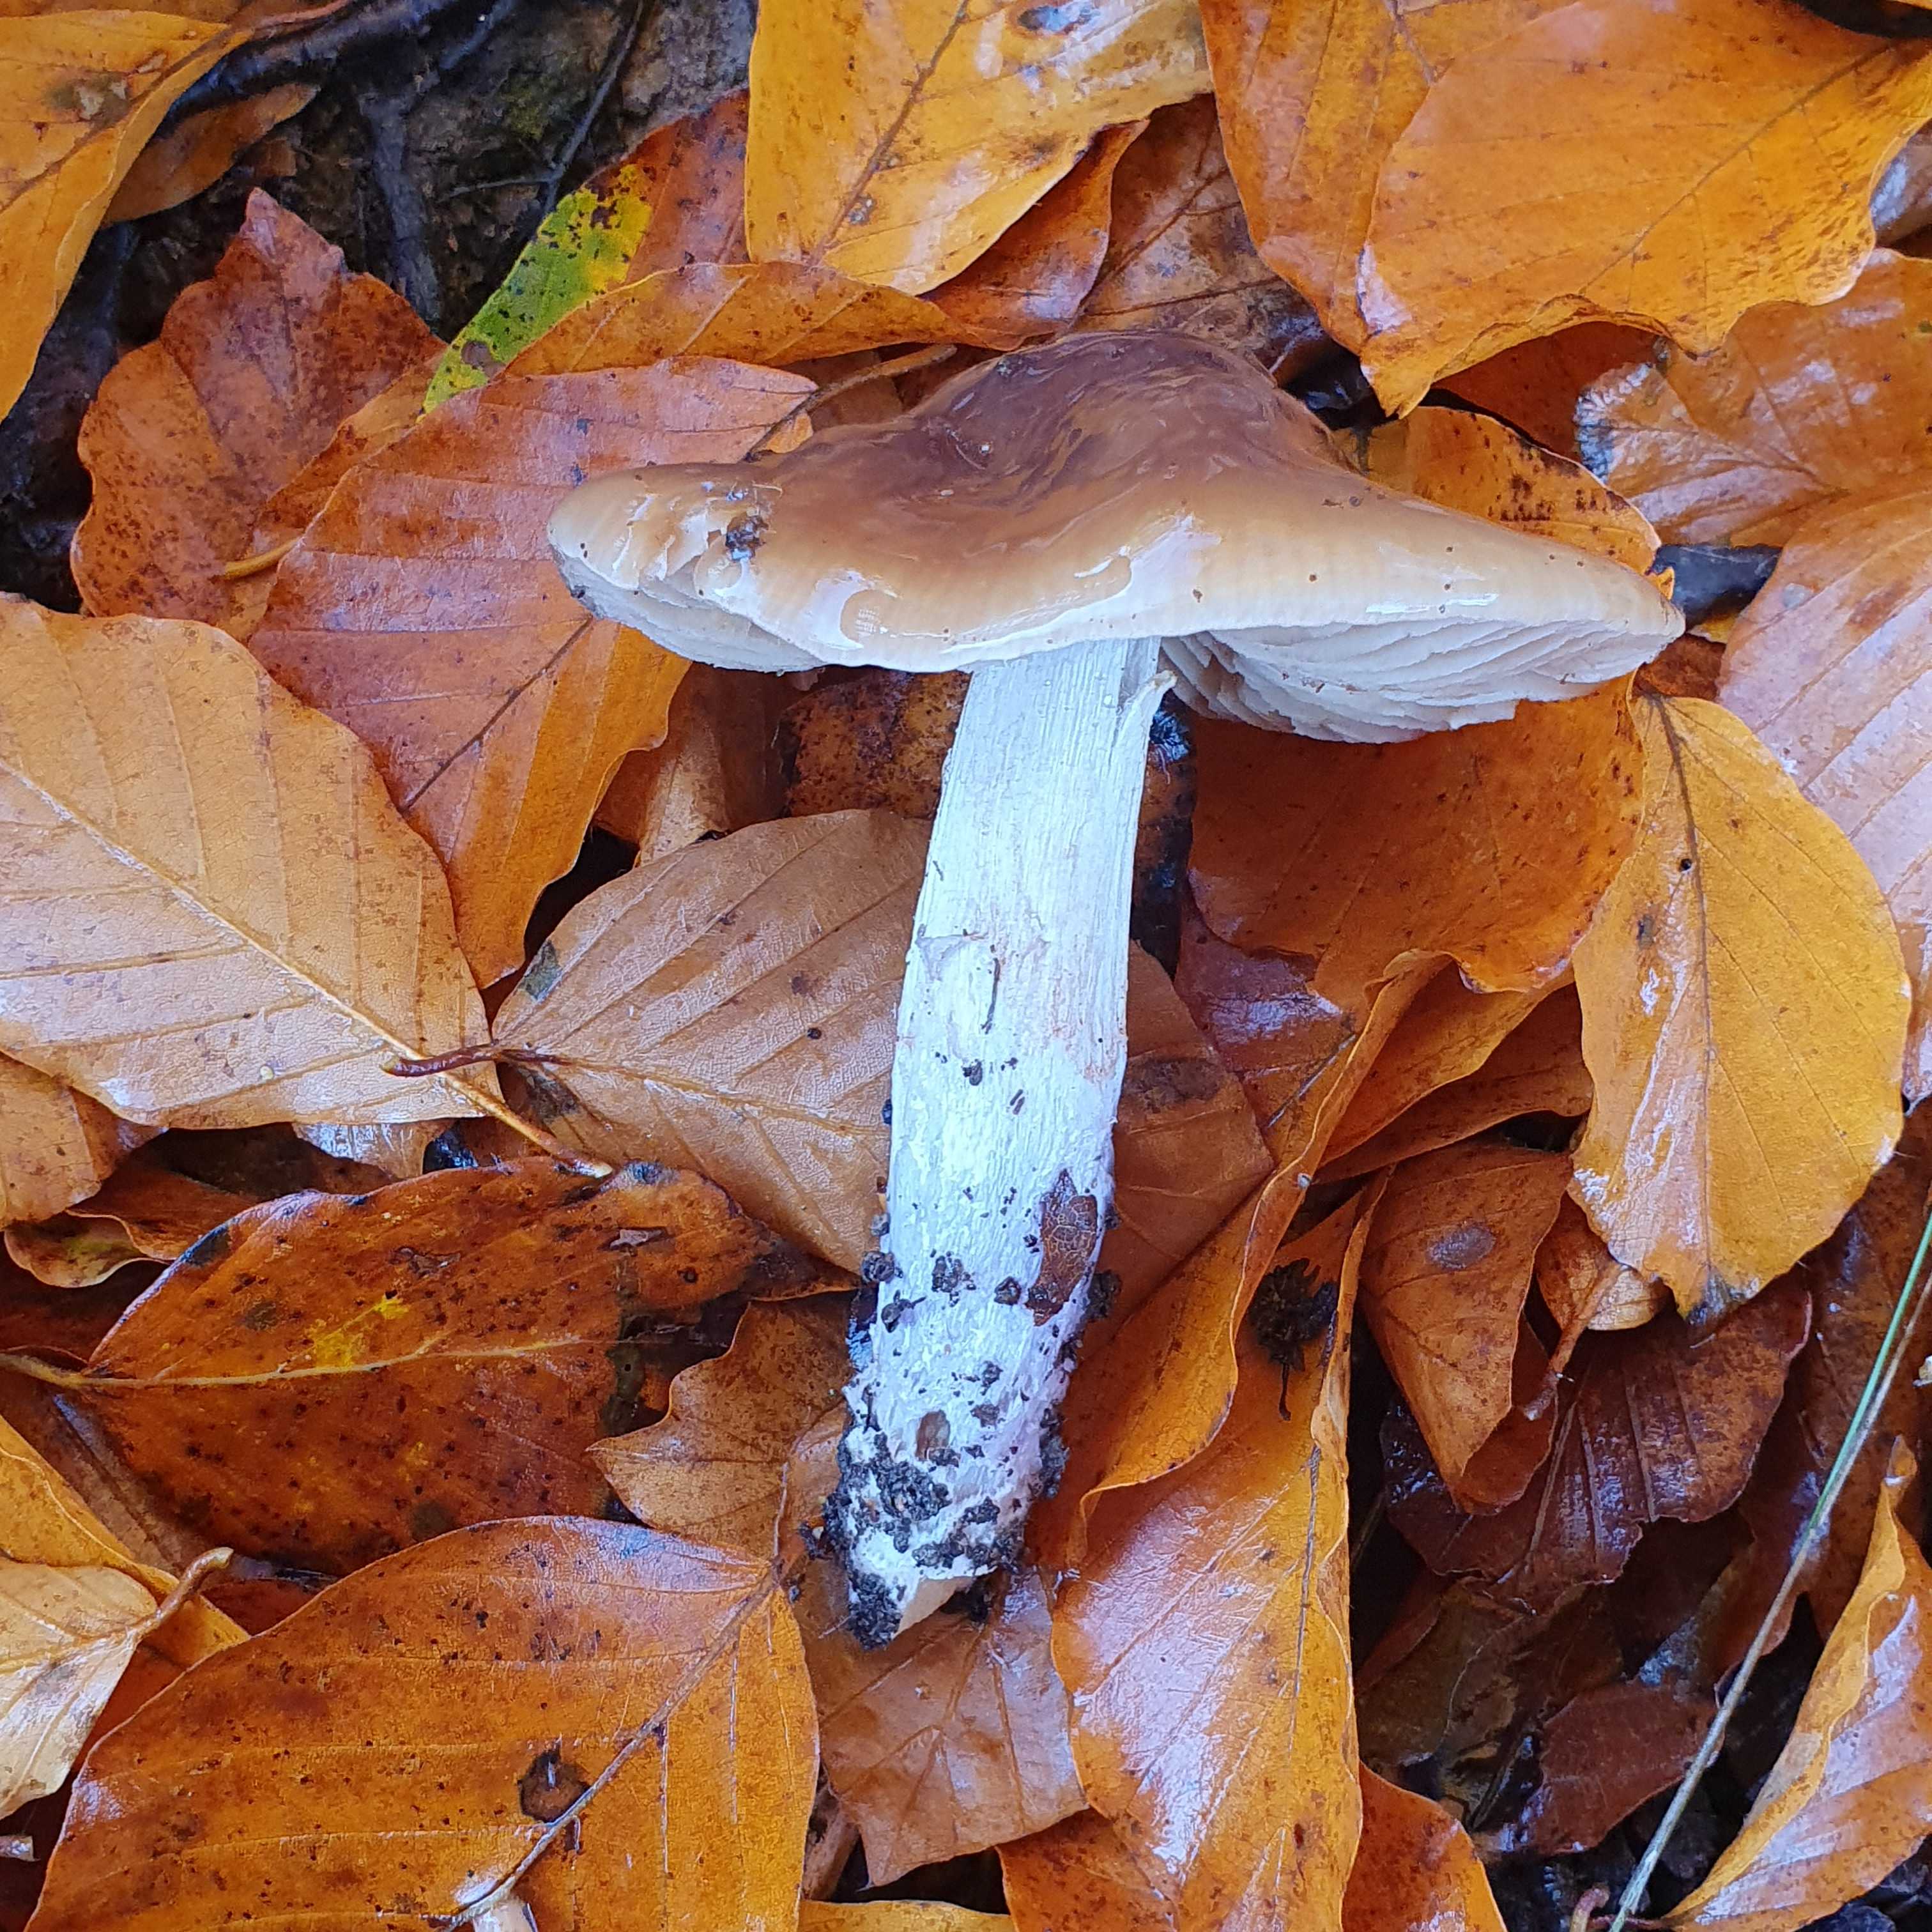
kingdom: Fungi
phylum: Basidiomycota
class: Agaricomycetes
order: Agaricales
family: Cortinariaceae
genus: Cortinarius
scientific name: Cortinarius elatior
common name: høj slørhat
